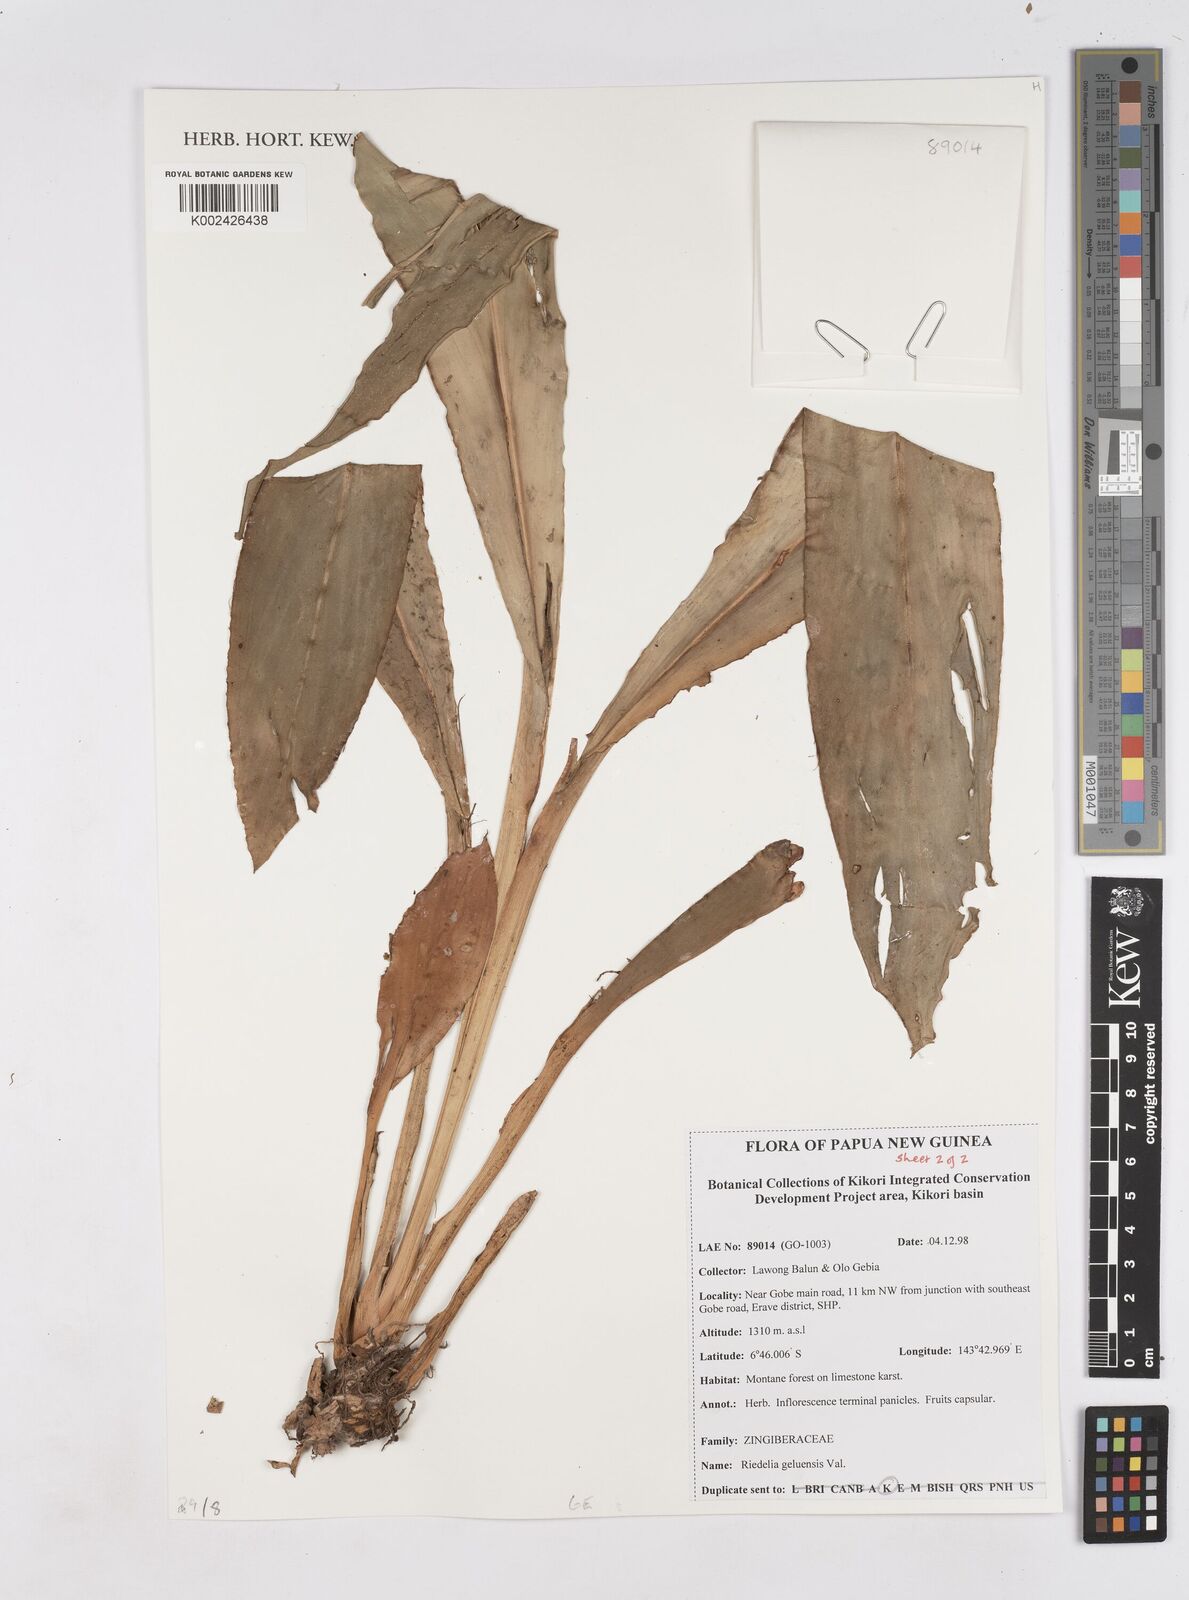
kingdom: Plantae
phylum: Tracheophyta
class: Liliopsida
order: Zingiberales
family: Zingiberaceae
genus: Riedelia
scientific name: Riedelia geluensis
